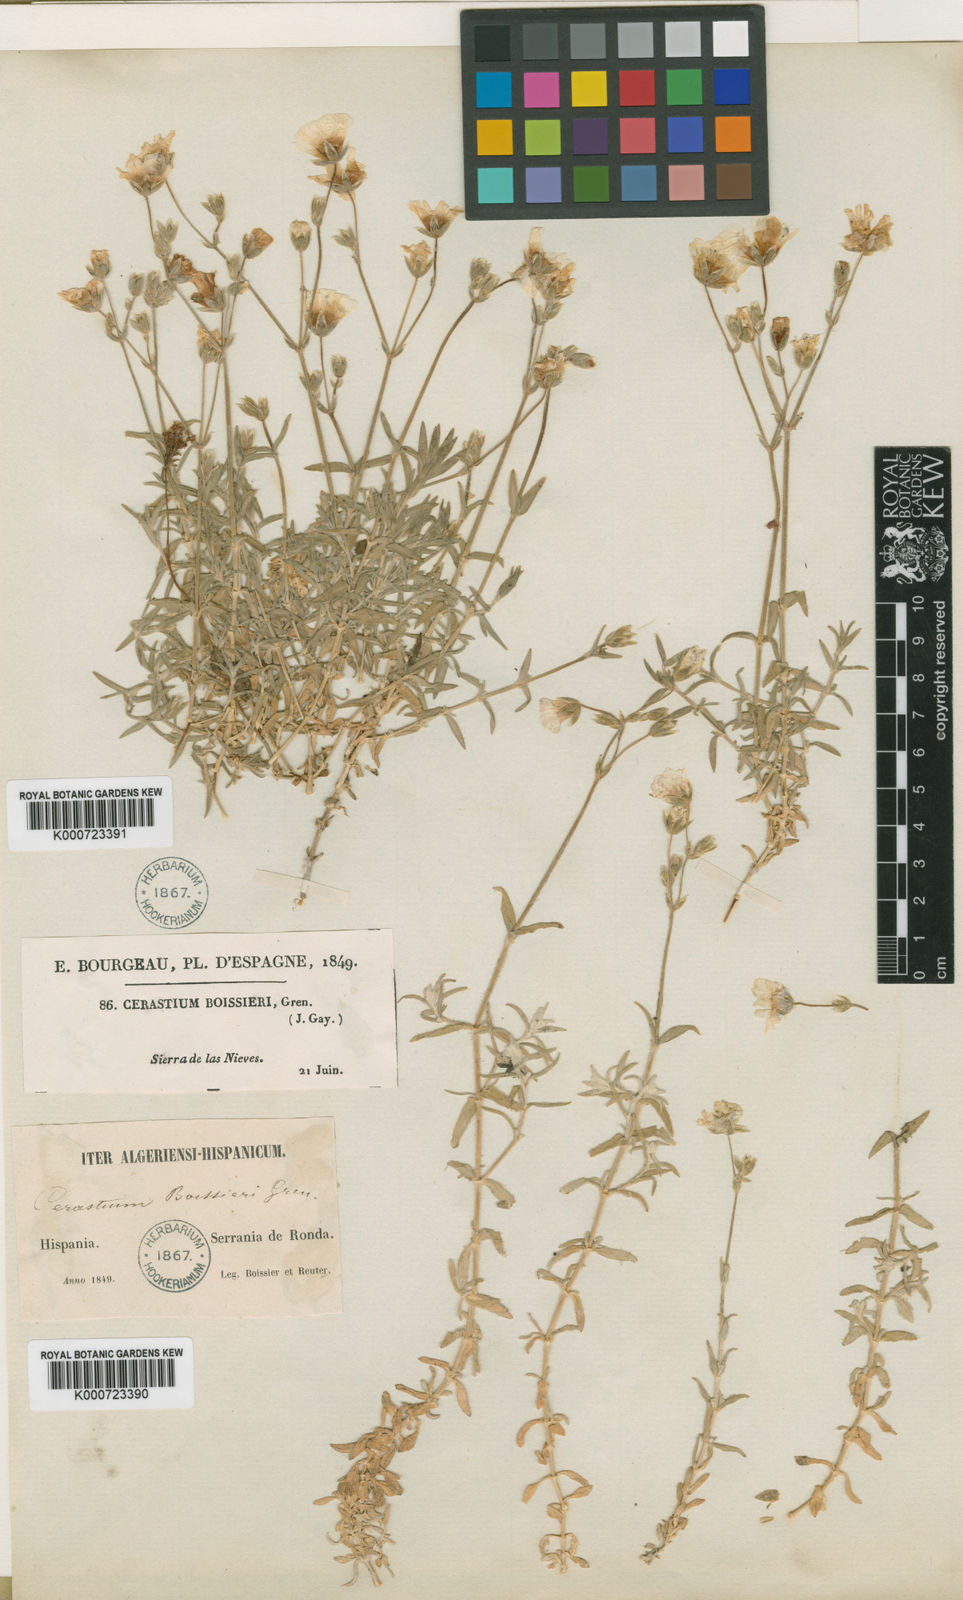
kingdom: Plantae
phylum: Tracheophyta
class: Magnoliopsida
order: Caryophyllales
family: Caryophyllaceae
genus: Cerastium
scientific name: Cerastium gibraltaricum
